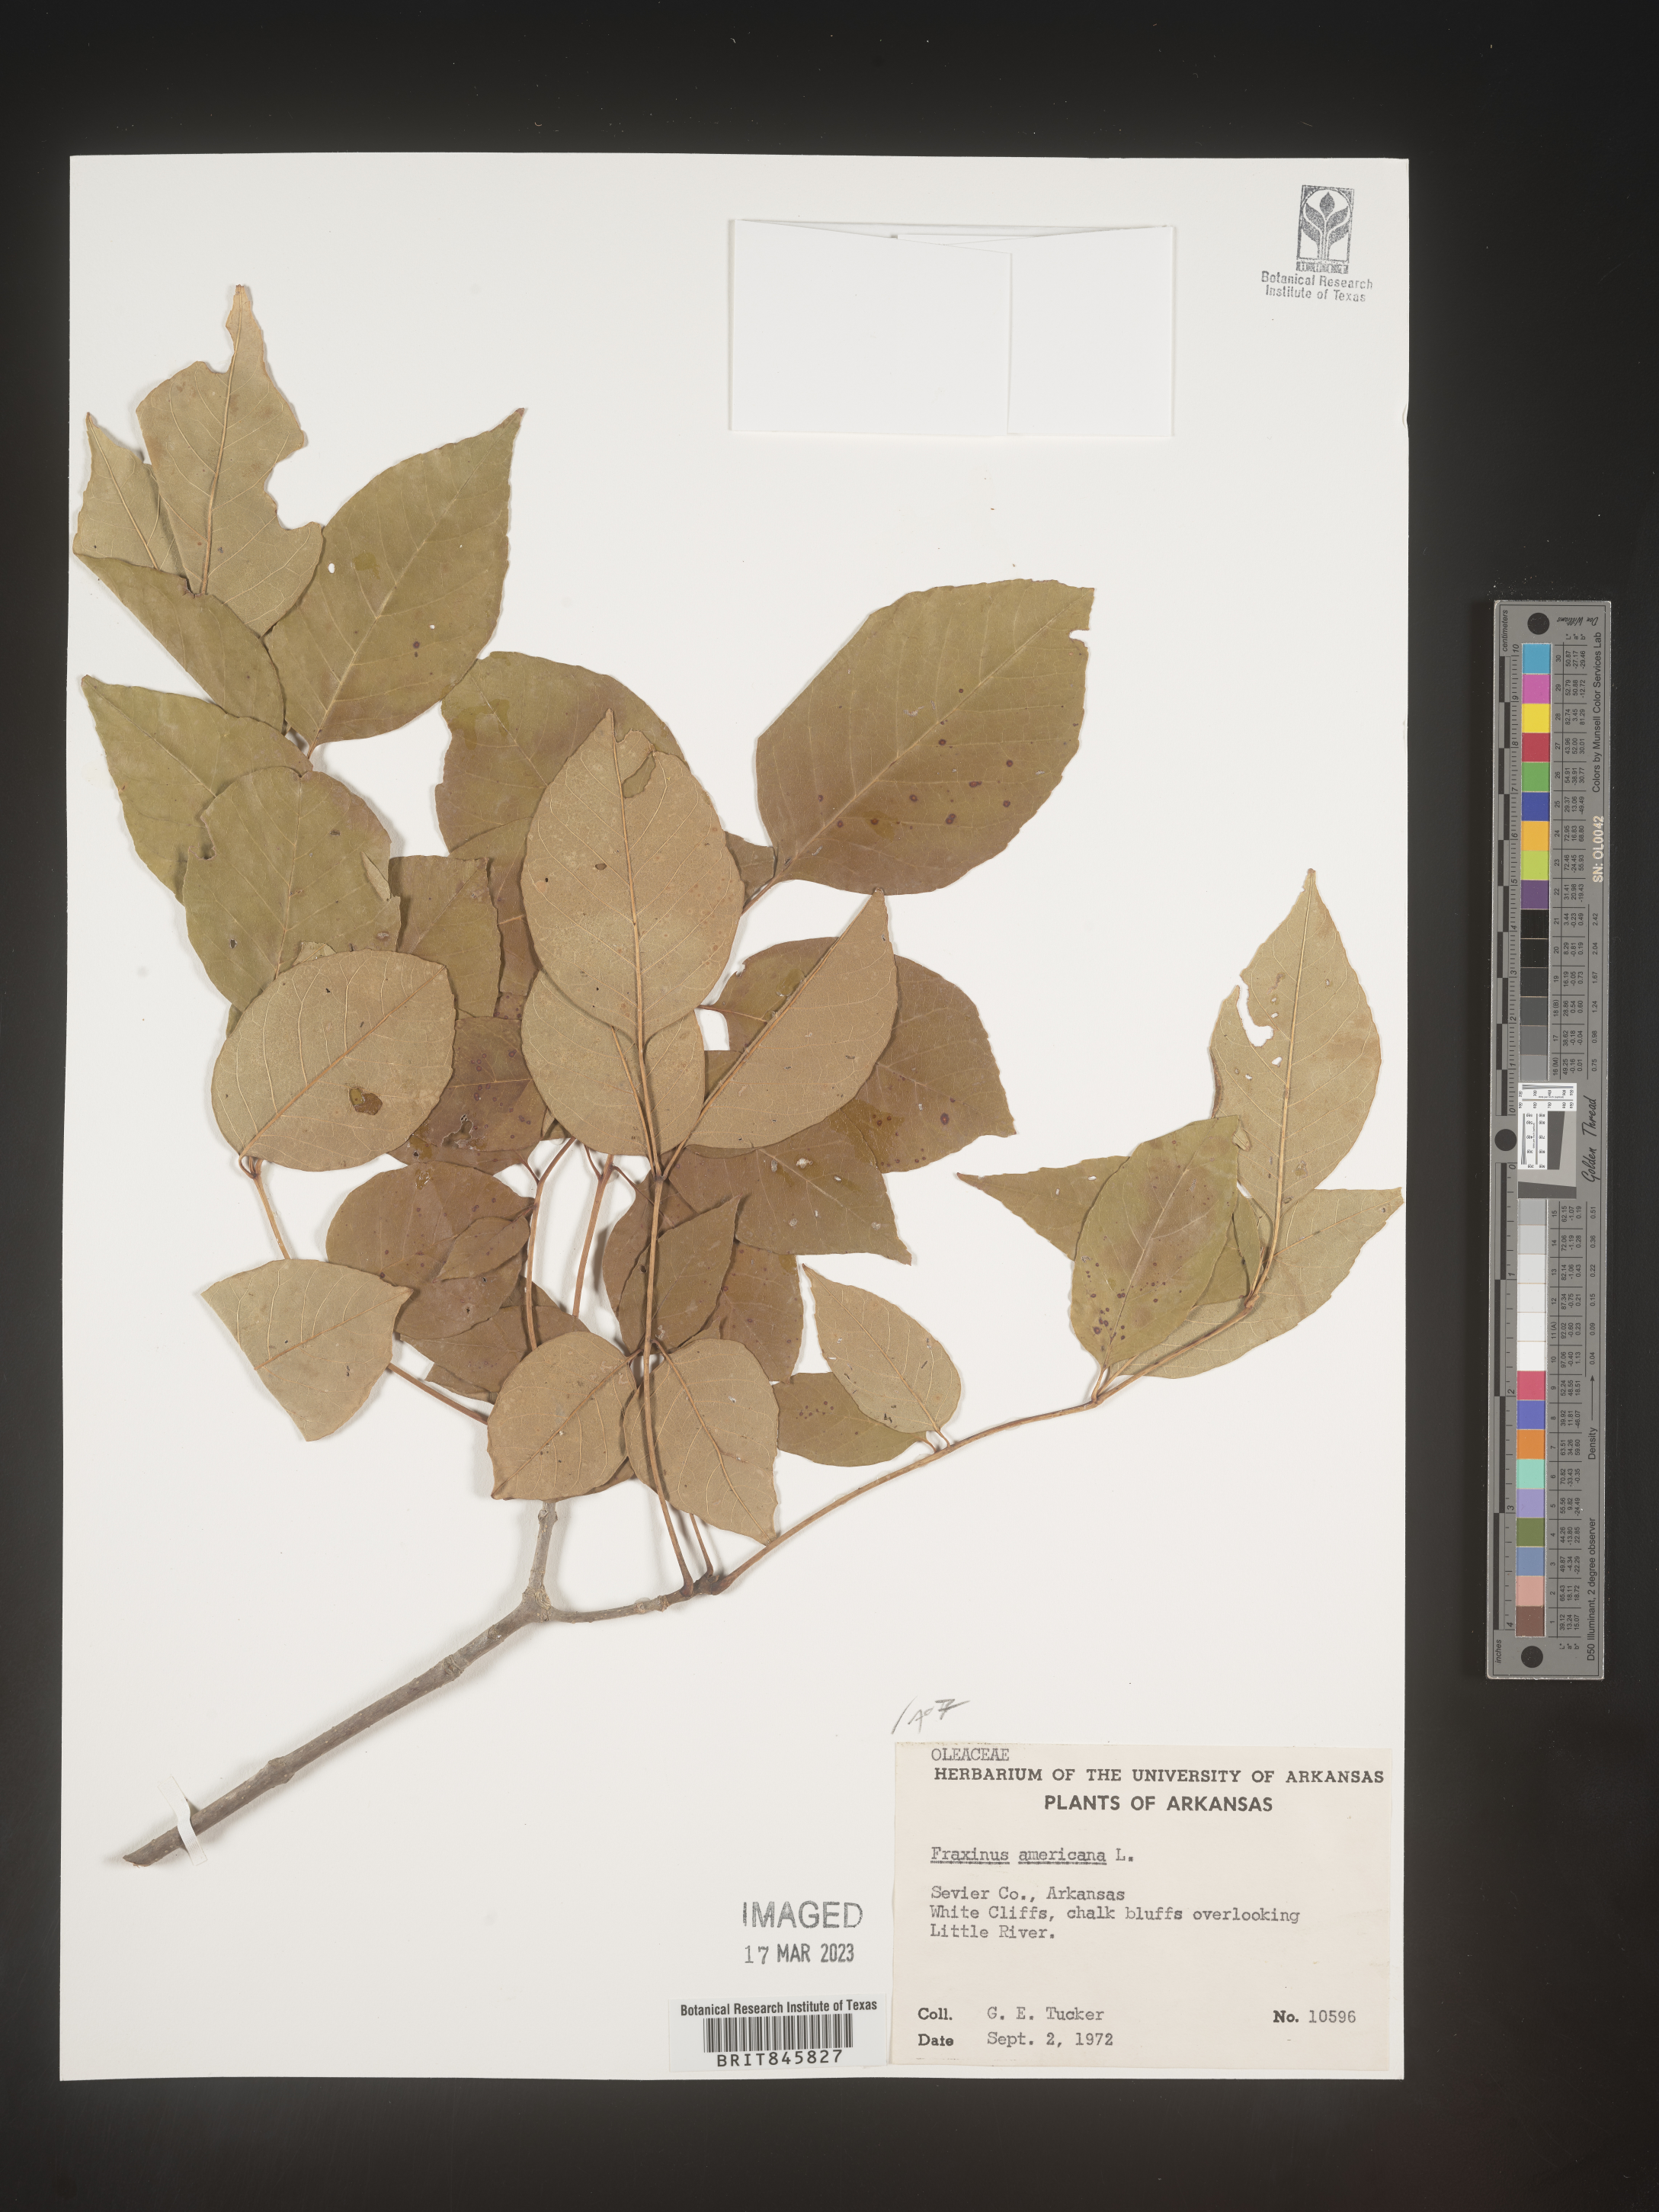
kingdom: Plantae
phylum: Tracheophyta
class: Magnoliopsida
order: Lamiales
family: Oleaceae
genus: Fraxinus
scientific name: Fraxinus americana
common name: White ash
